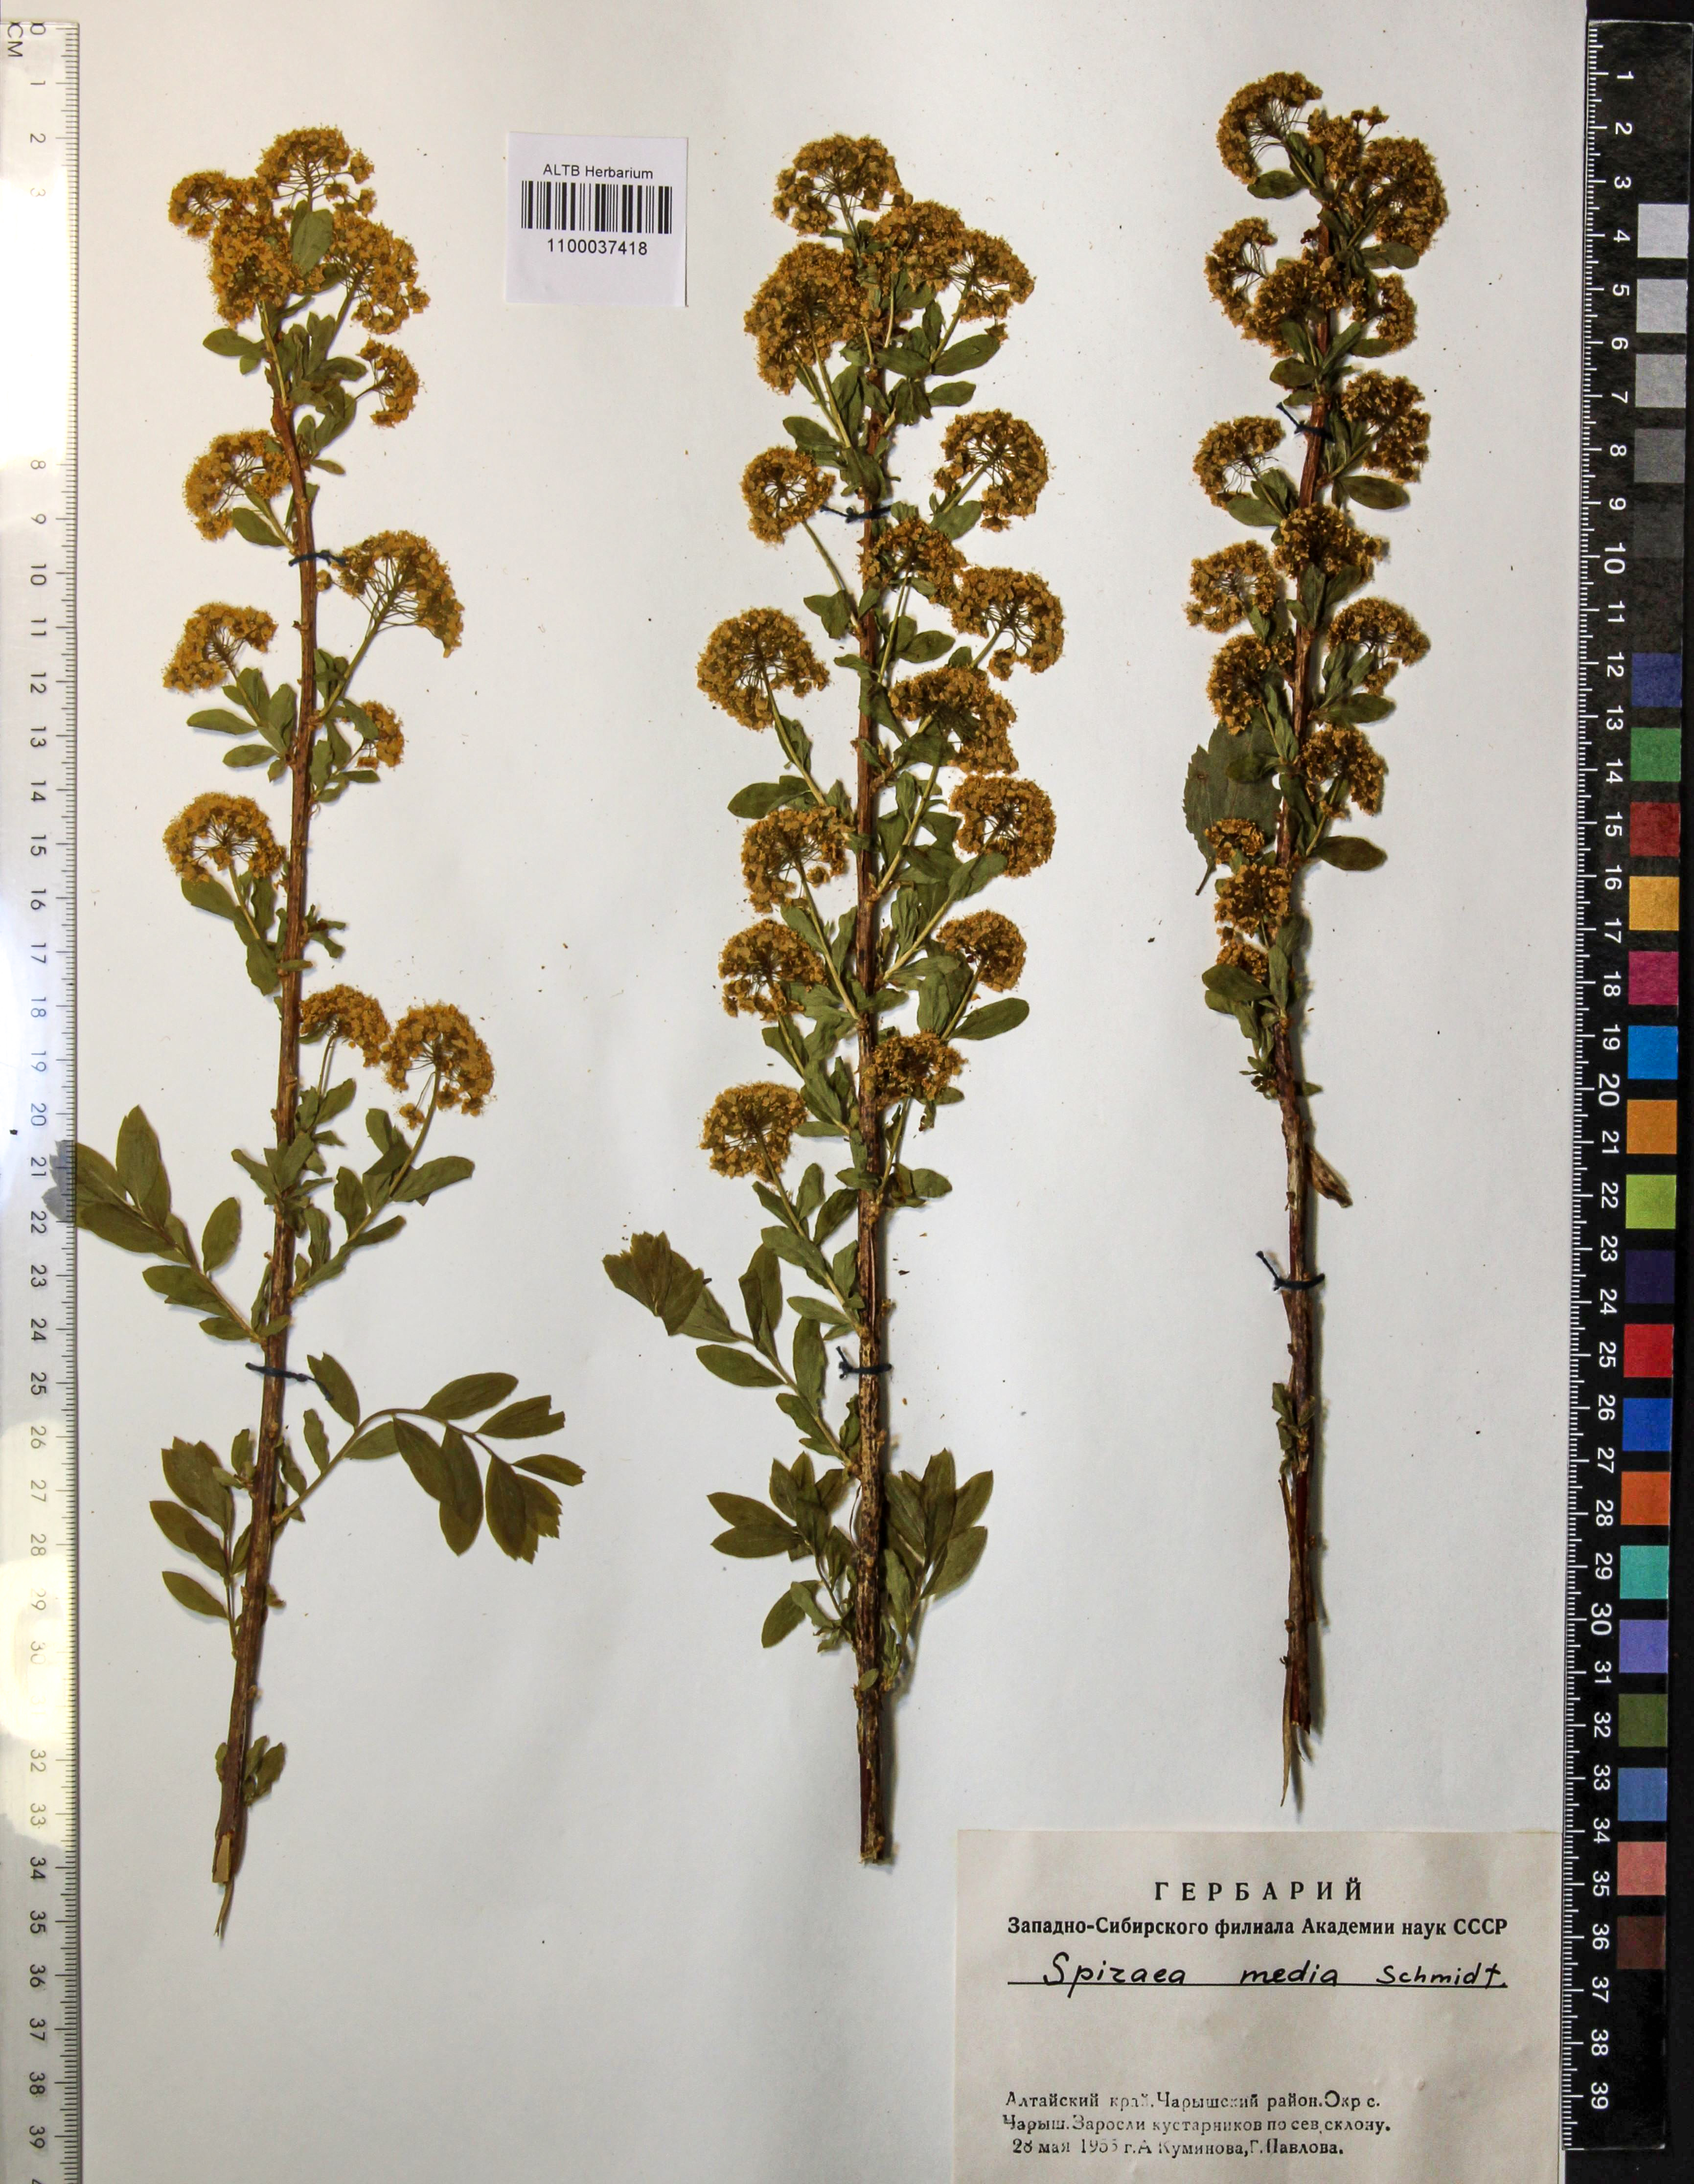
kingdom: Plantae
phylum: Tracheophyta
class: Magnoliopsida
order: Rosales
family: Rosaceae
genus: Spiraea
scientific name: Spiraea media
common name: Russian spiraea
